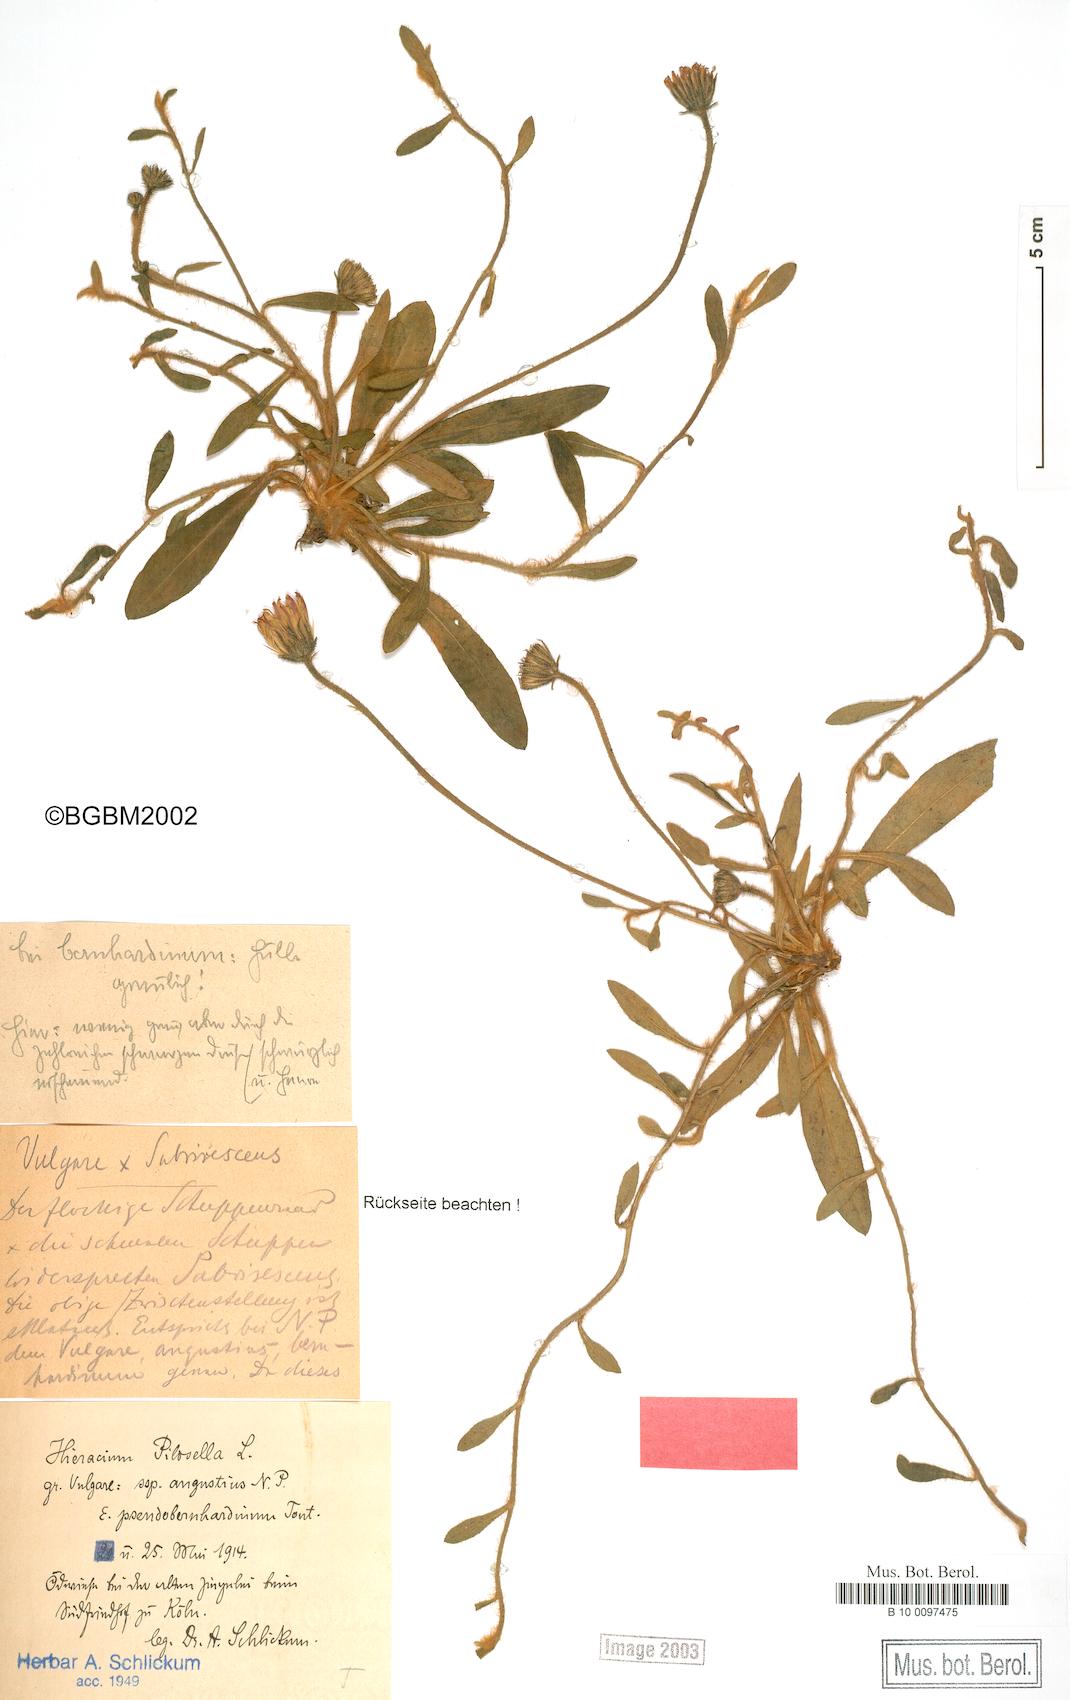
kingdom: Plantae
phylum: Tracheophyta
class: Magnoliopsida
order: Asterales
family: Asteraceae
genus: Pilosella
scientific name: Pilosella officinarum
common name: Mouse-ear hawkweed
